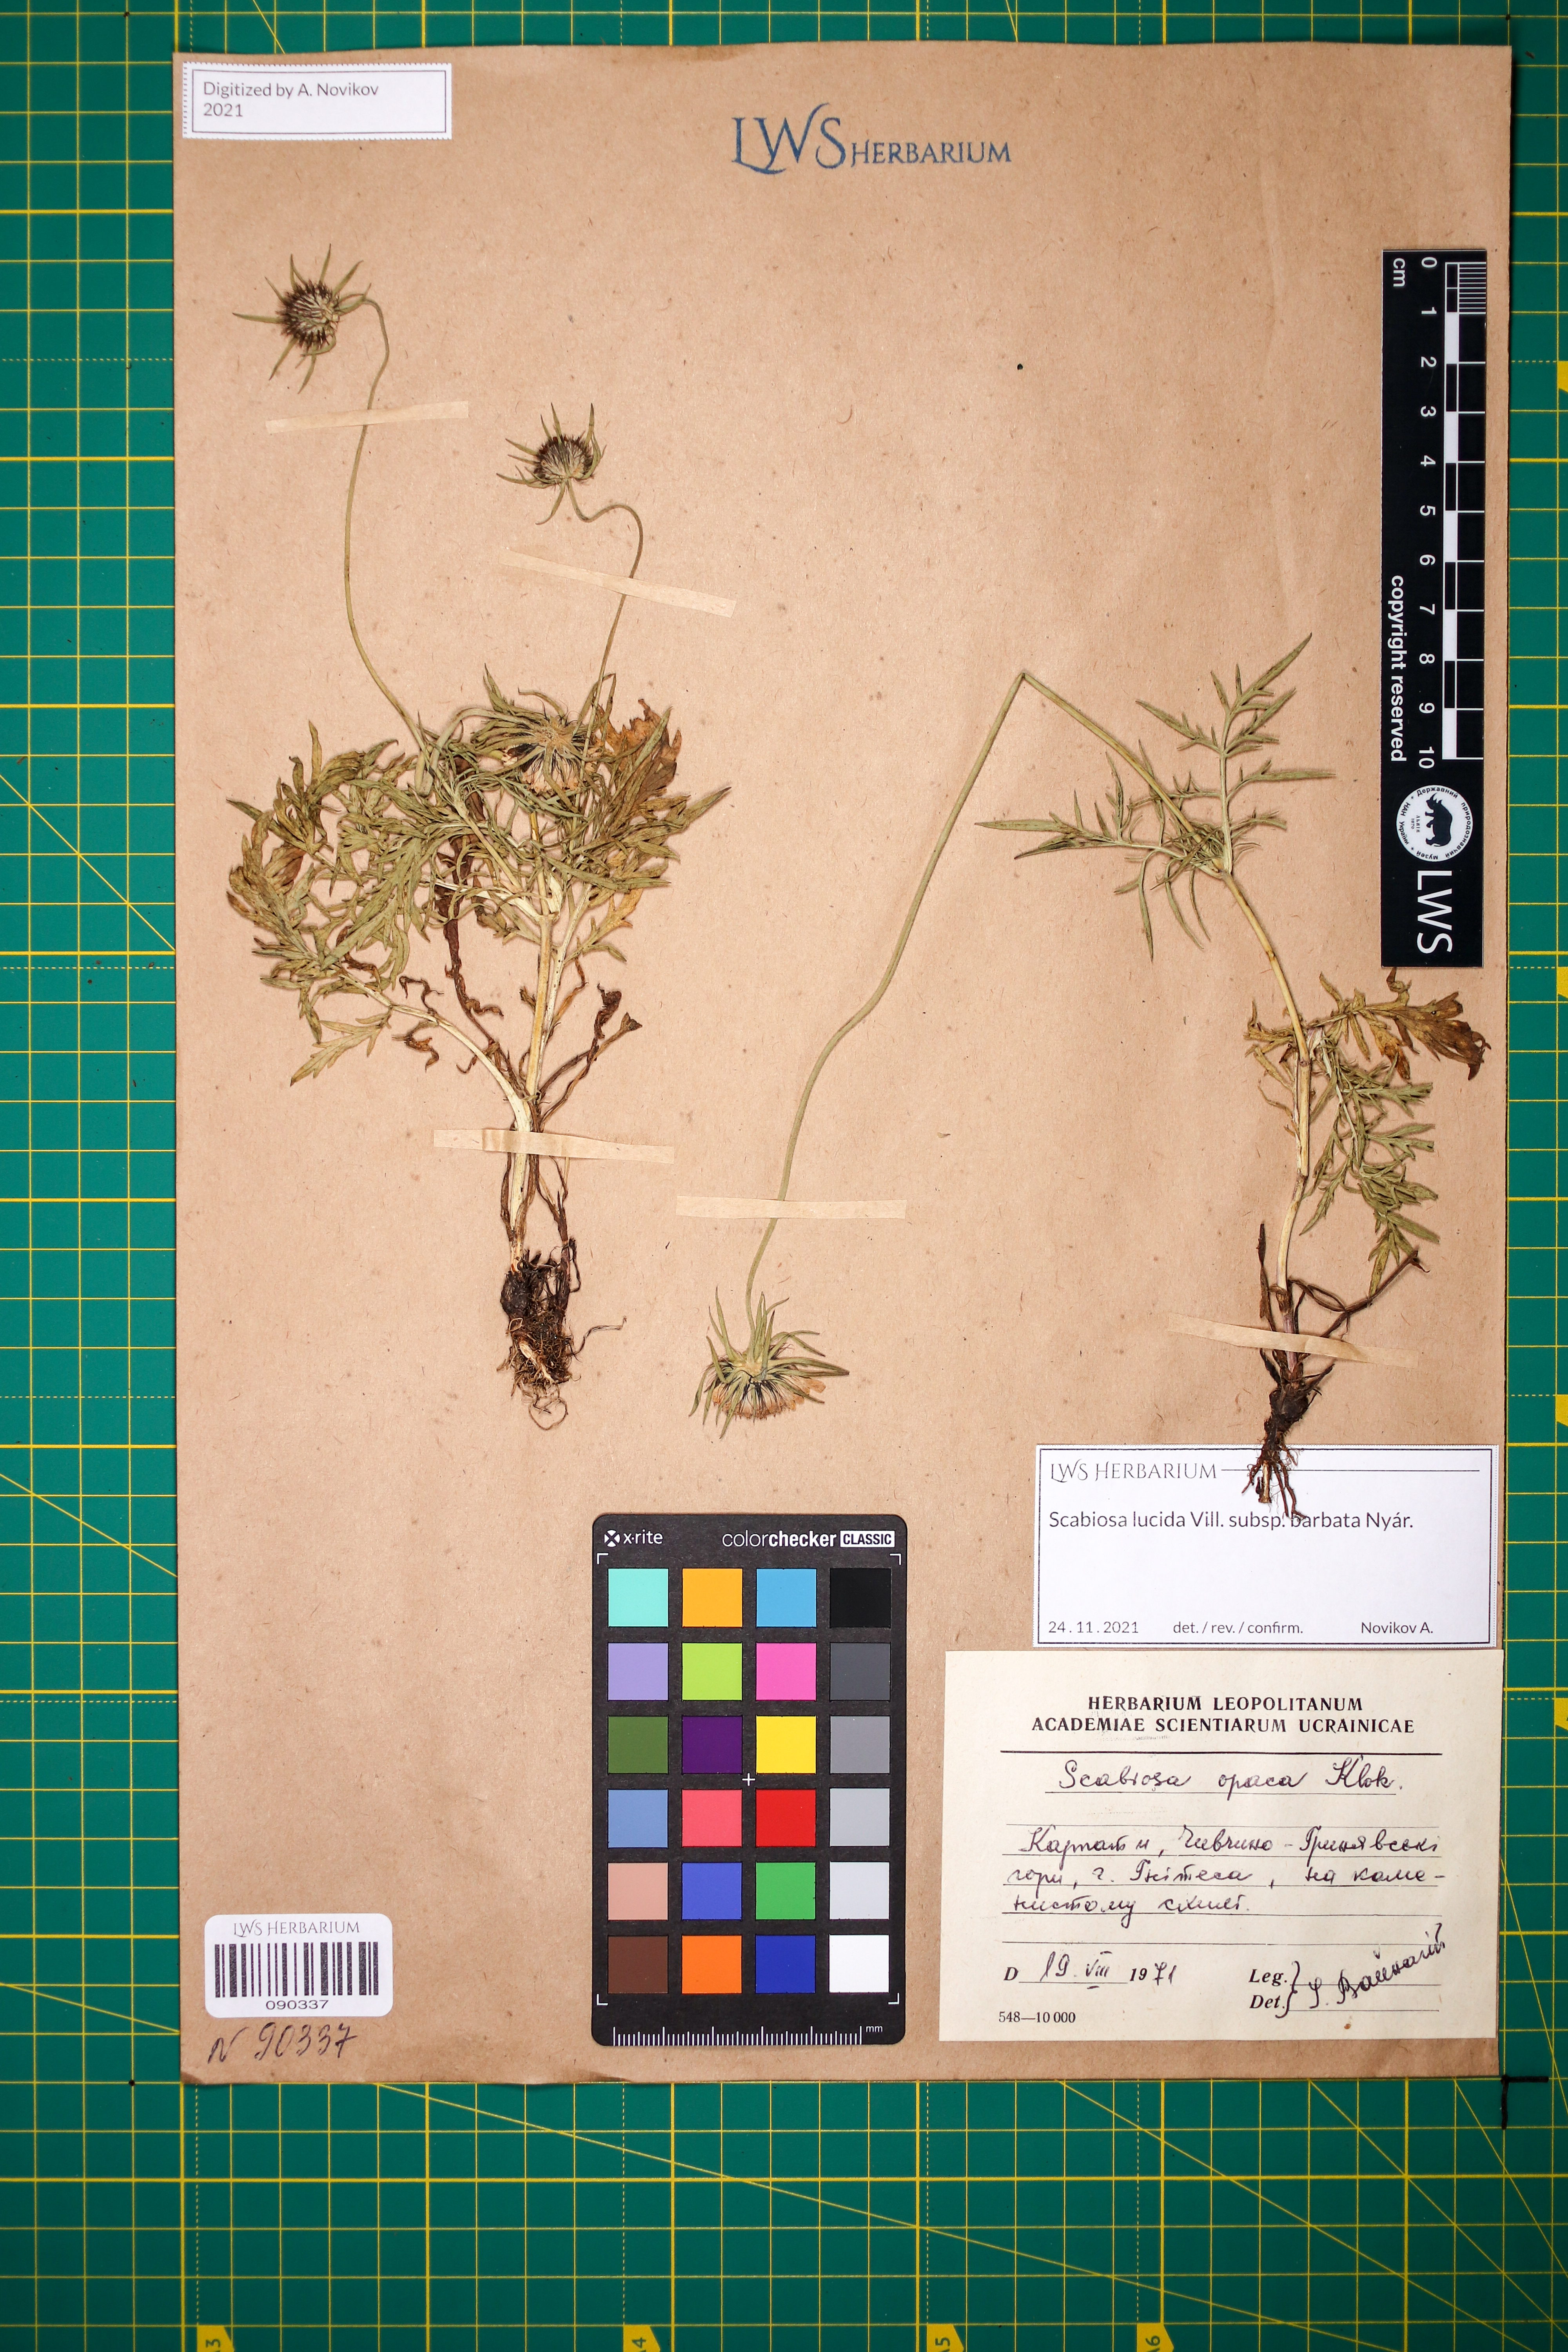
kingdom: Plantae
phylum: Tracheophyta
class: Magnoliopsida
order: Dipsacales
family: Caprifoliaceae
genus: Scabiosa
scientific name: Scabiosa lucida
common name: Shining scabious
